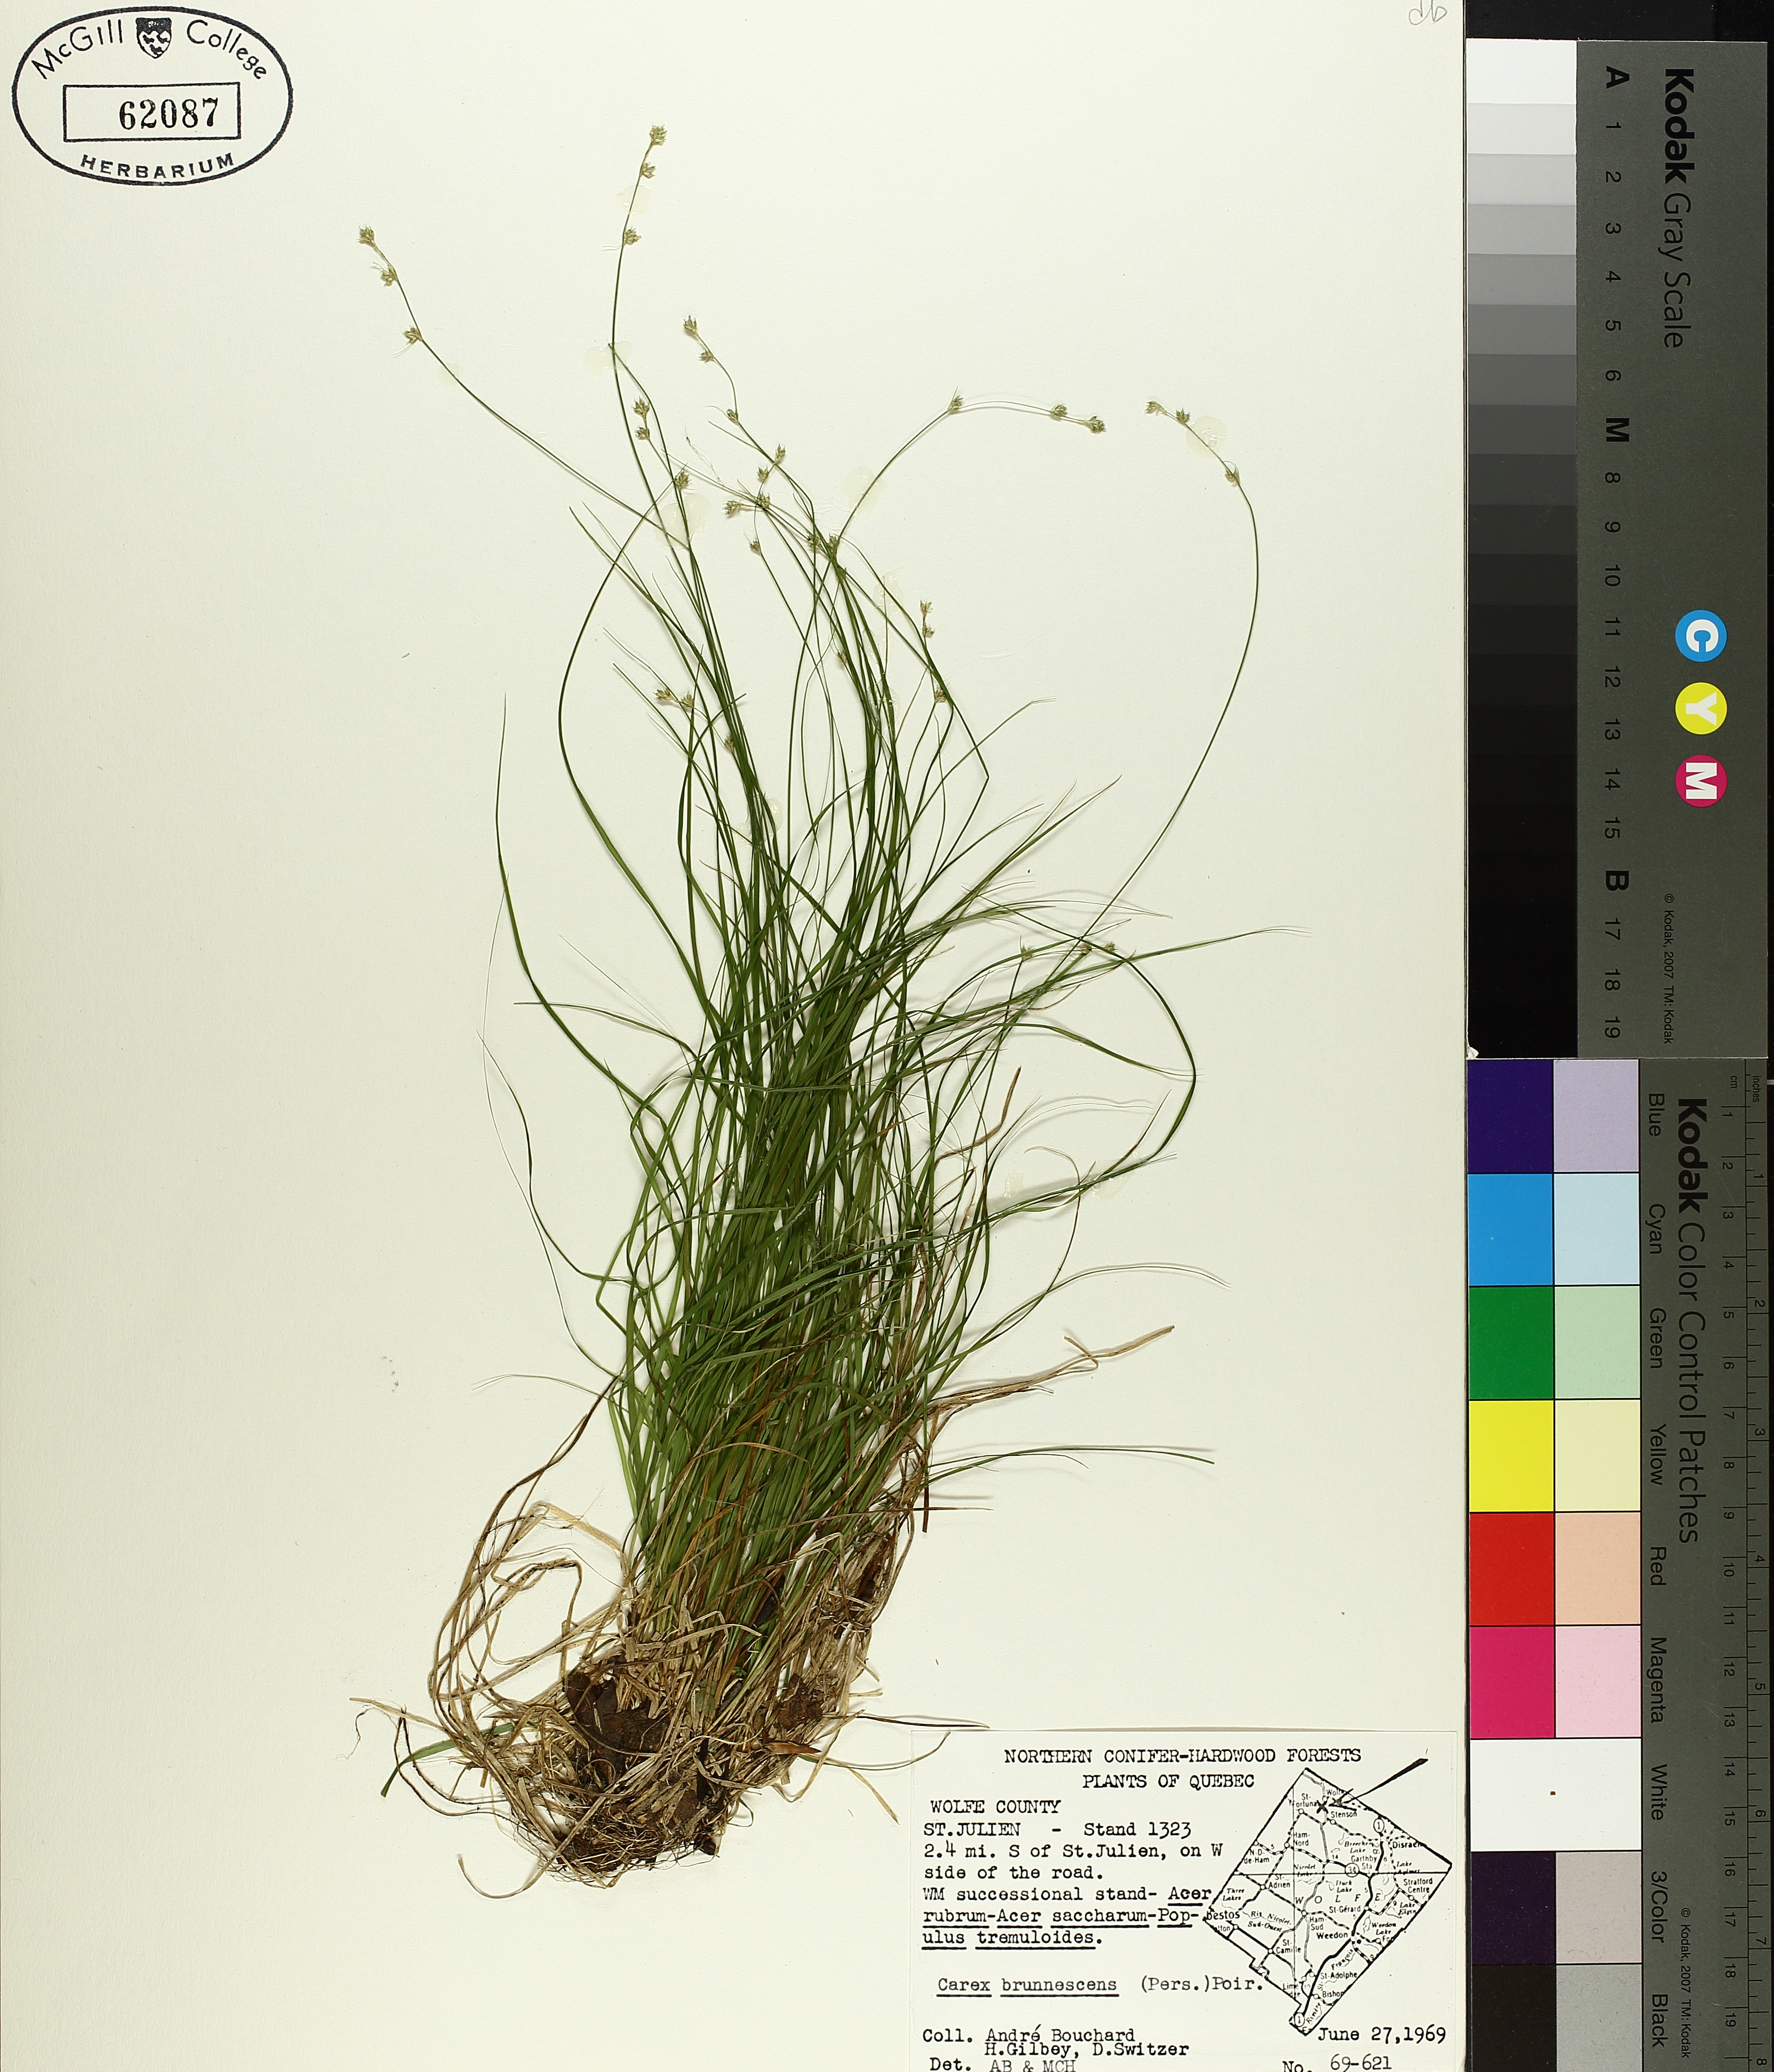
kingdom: Plantae
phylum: Tracheophyta
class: Liliopsida
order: Poales
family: Cyperaceae
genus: Carex
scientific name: Carex brunnescens
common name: Brown sedge
